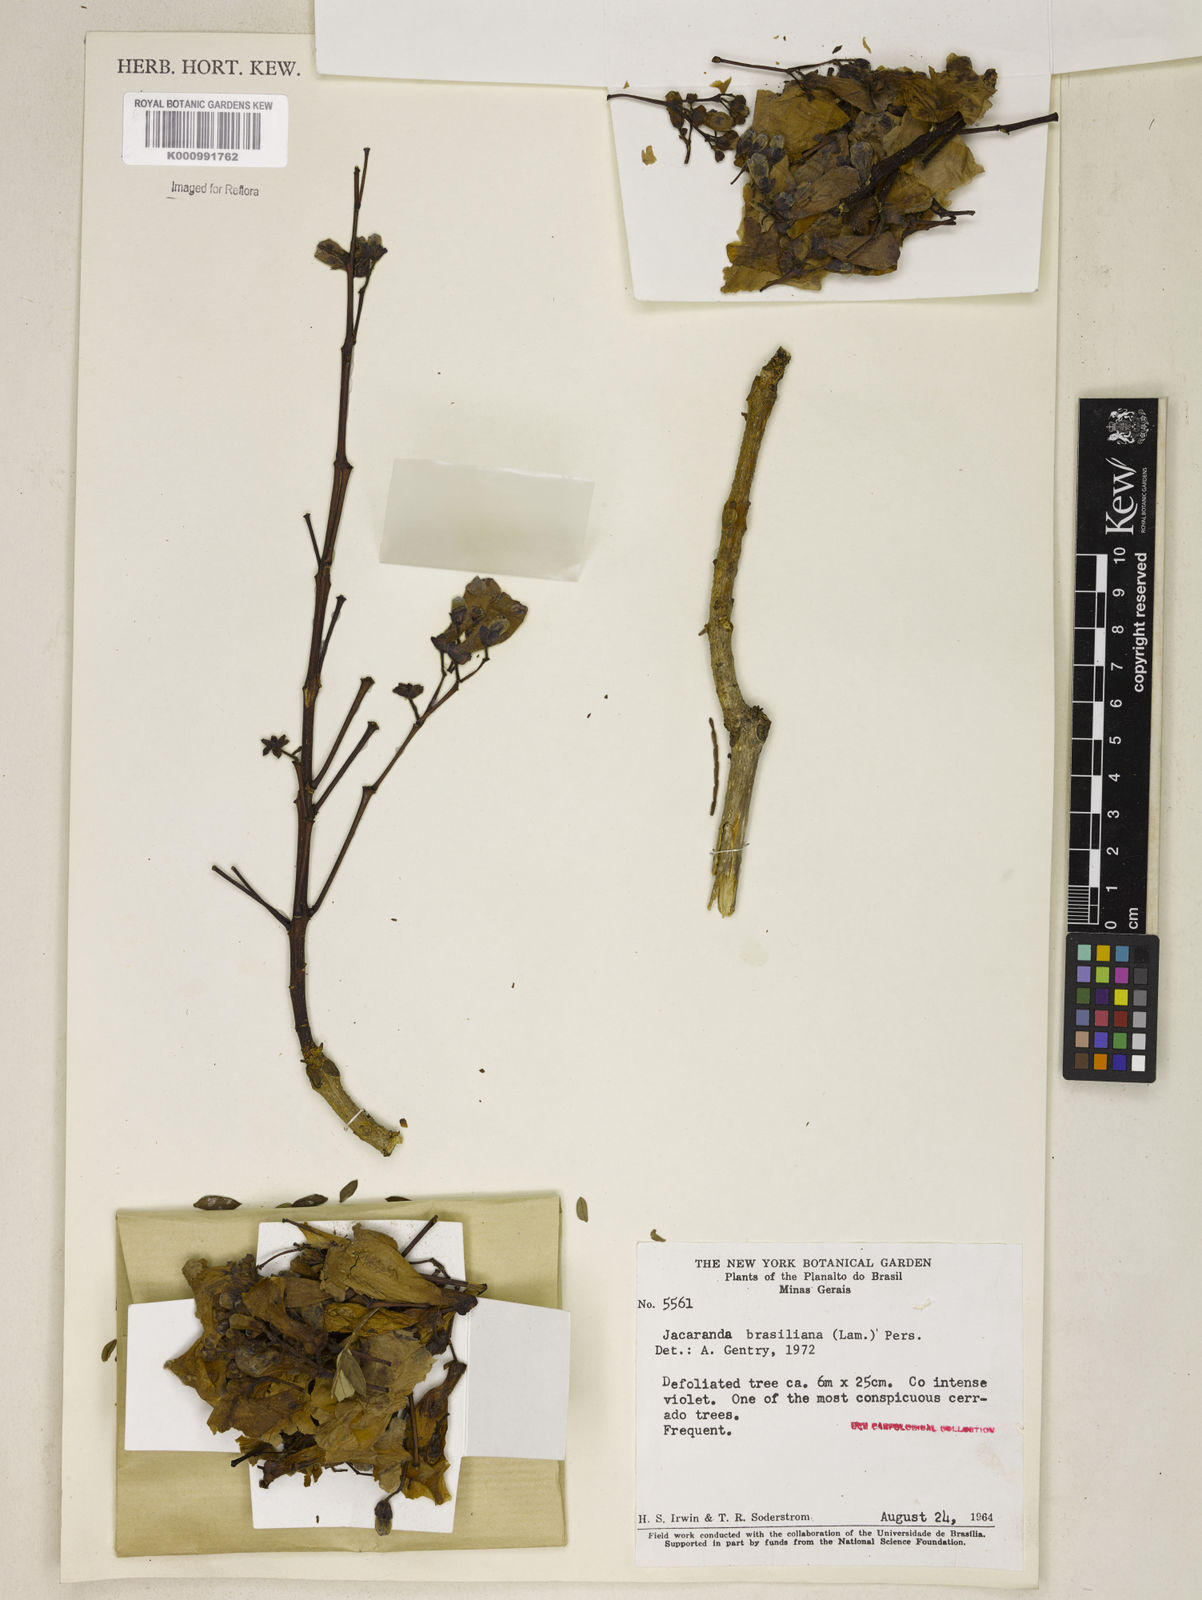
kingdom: Plantae
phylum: Tracheophyta
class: Magnoliopsida
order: Lamiales
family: Bignoniaceae
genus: Jacaranda
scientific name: Jacaranda brasiliana
